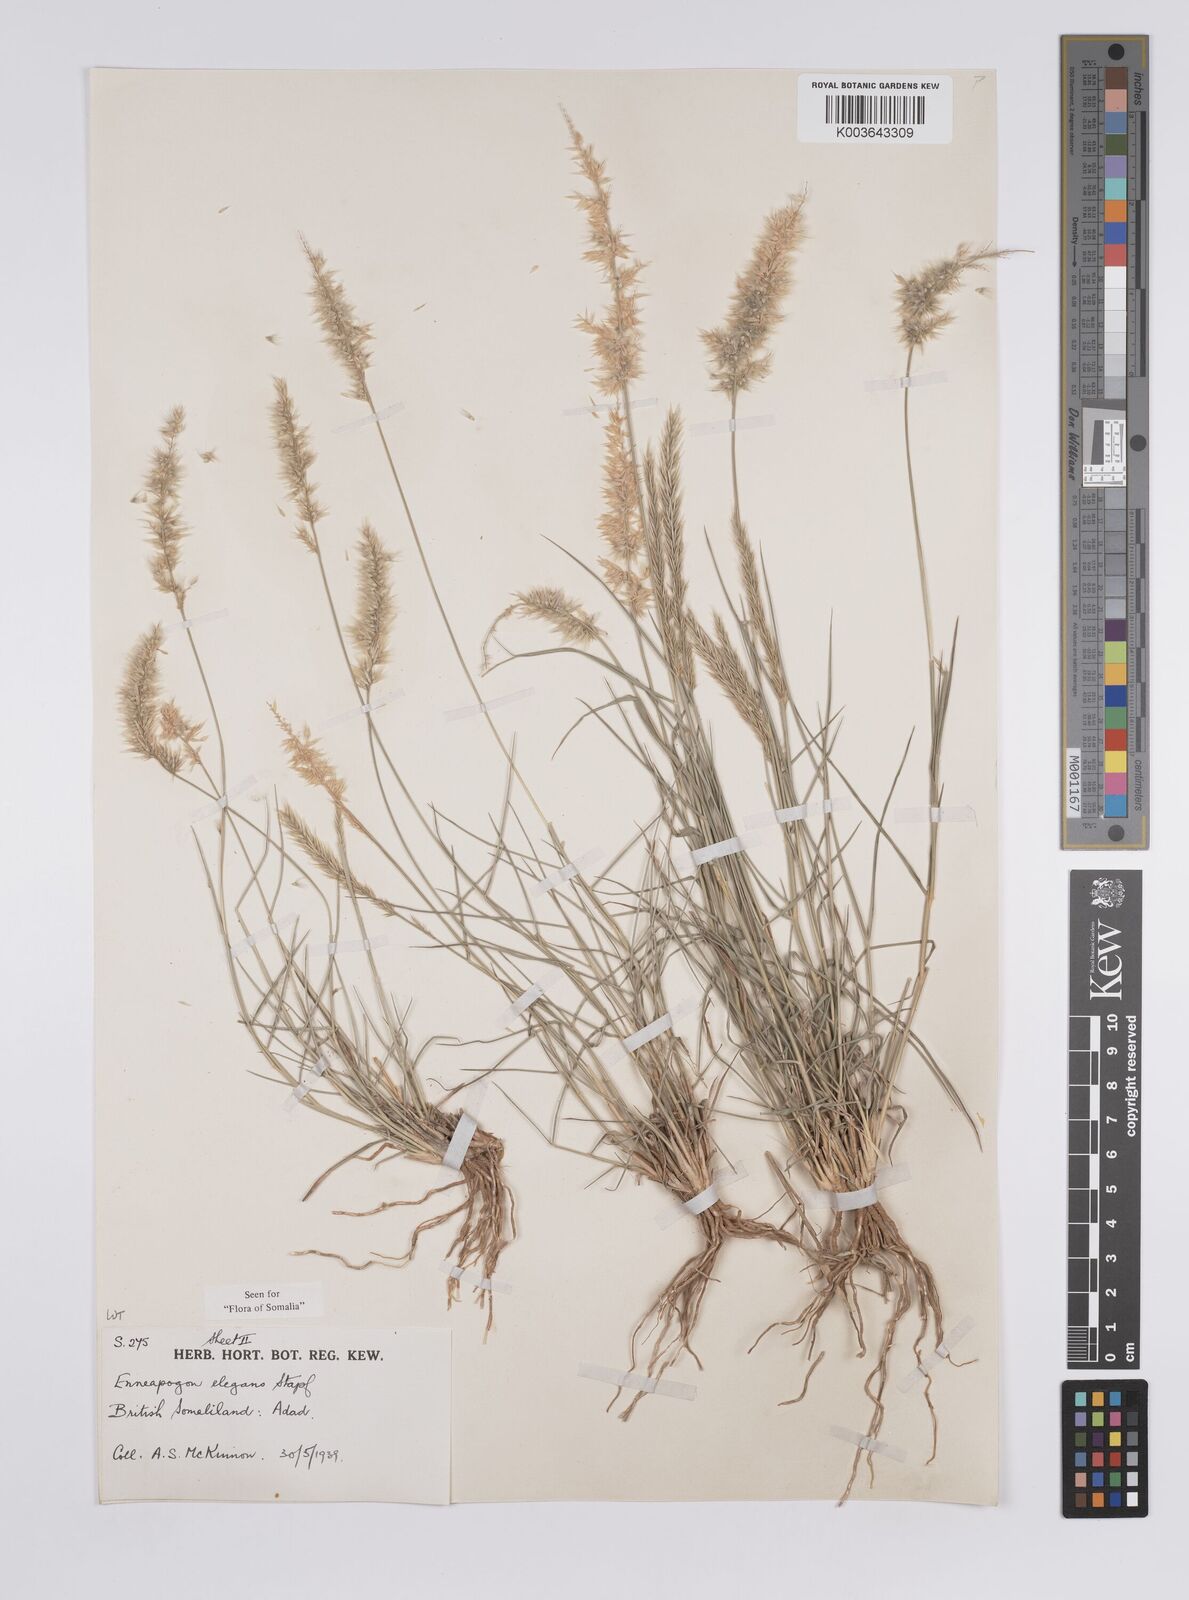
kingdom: Plantae
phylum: Tracheophyta
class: Liliopsida
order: Poales
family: Poaceae
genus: Enneapogon
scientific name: Enneapogon persicus
